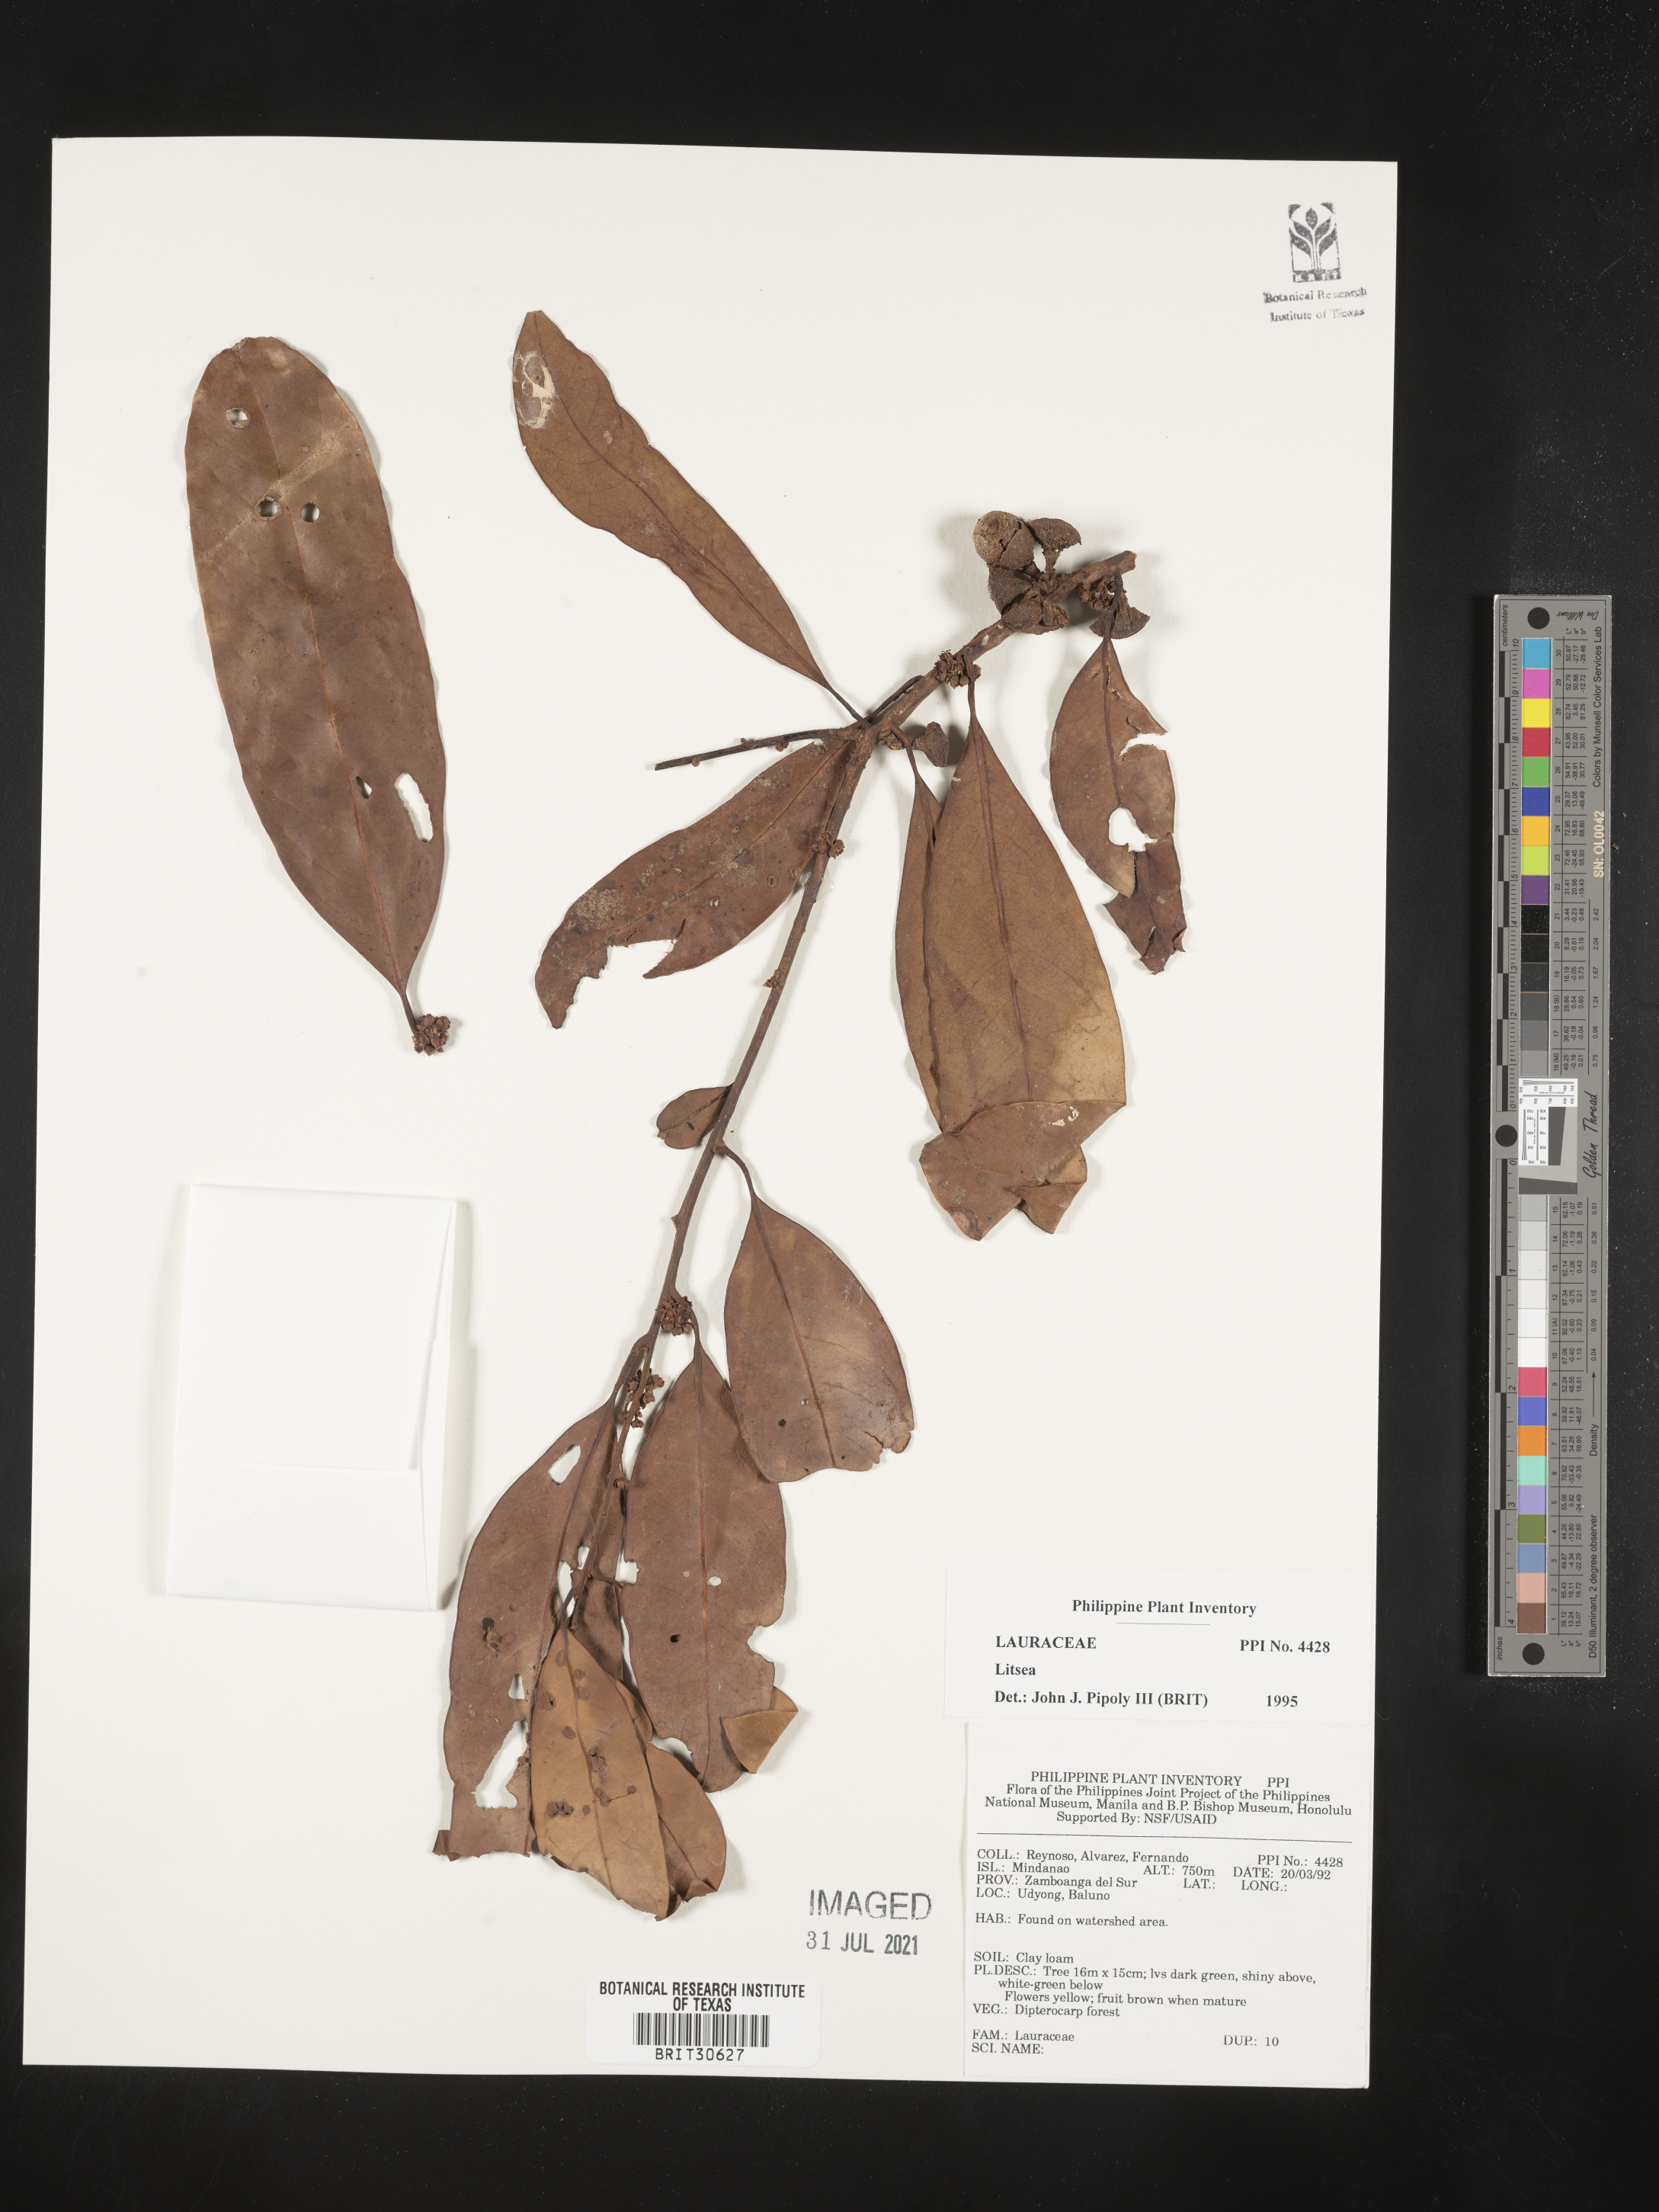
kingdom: Plantae
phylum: Tracheophyta
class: Magnoliopsida
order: Laurales
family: Lauraceae
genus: Litsea
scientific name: Litsea
